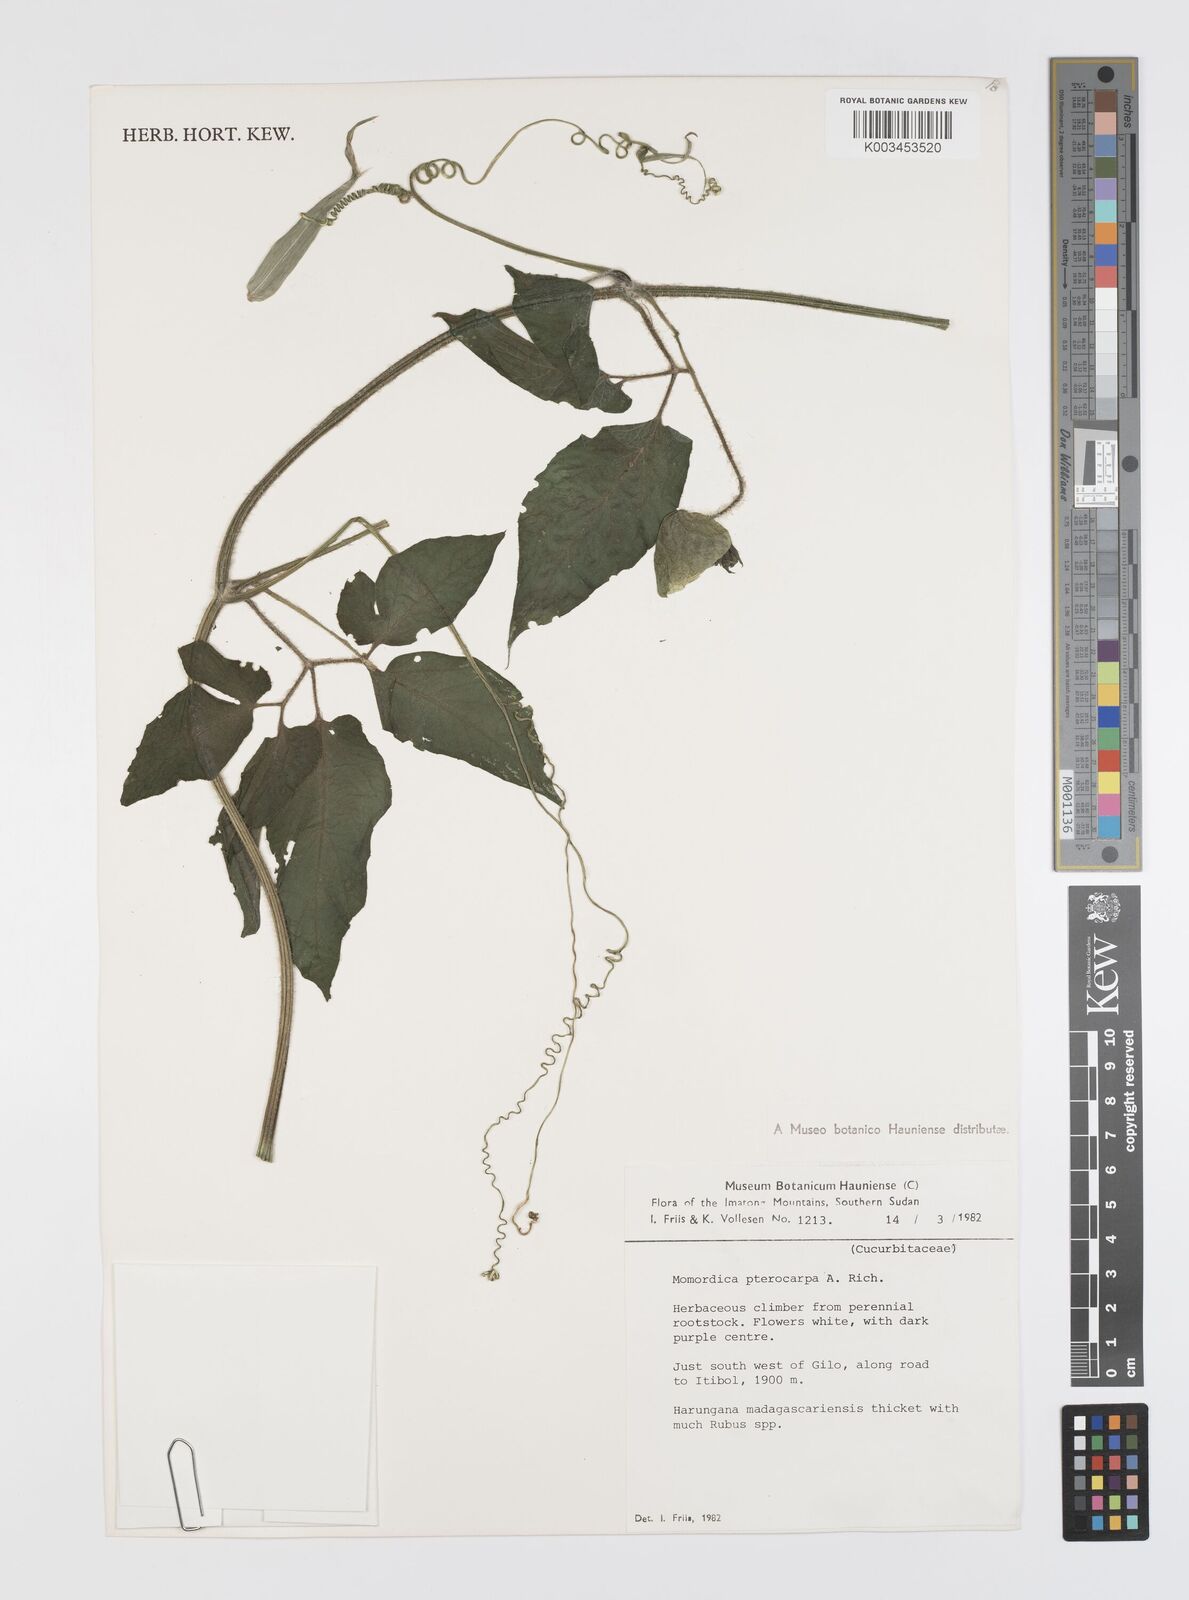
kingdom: Plantae
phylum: Tracheophyta
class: Magnoliopsida
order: Cucurbitales
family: Cucurbitaceae
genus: Momordica
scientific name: Momordica pterocarpa
